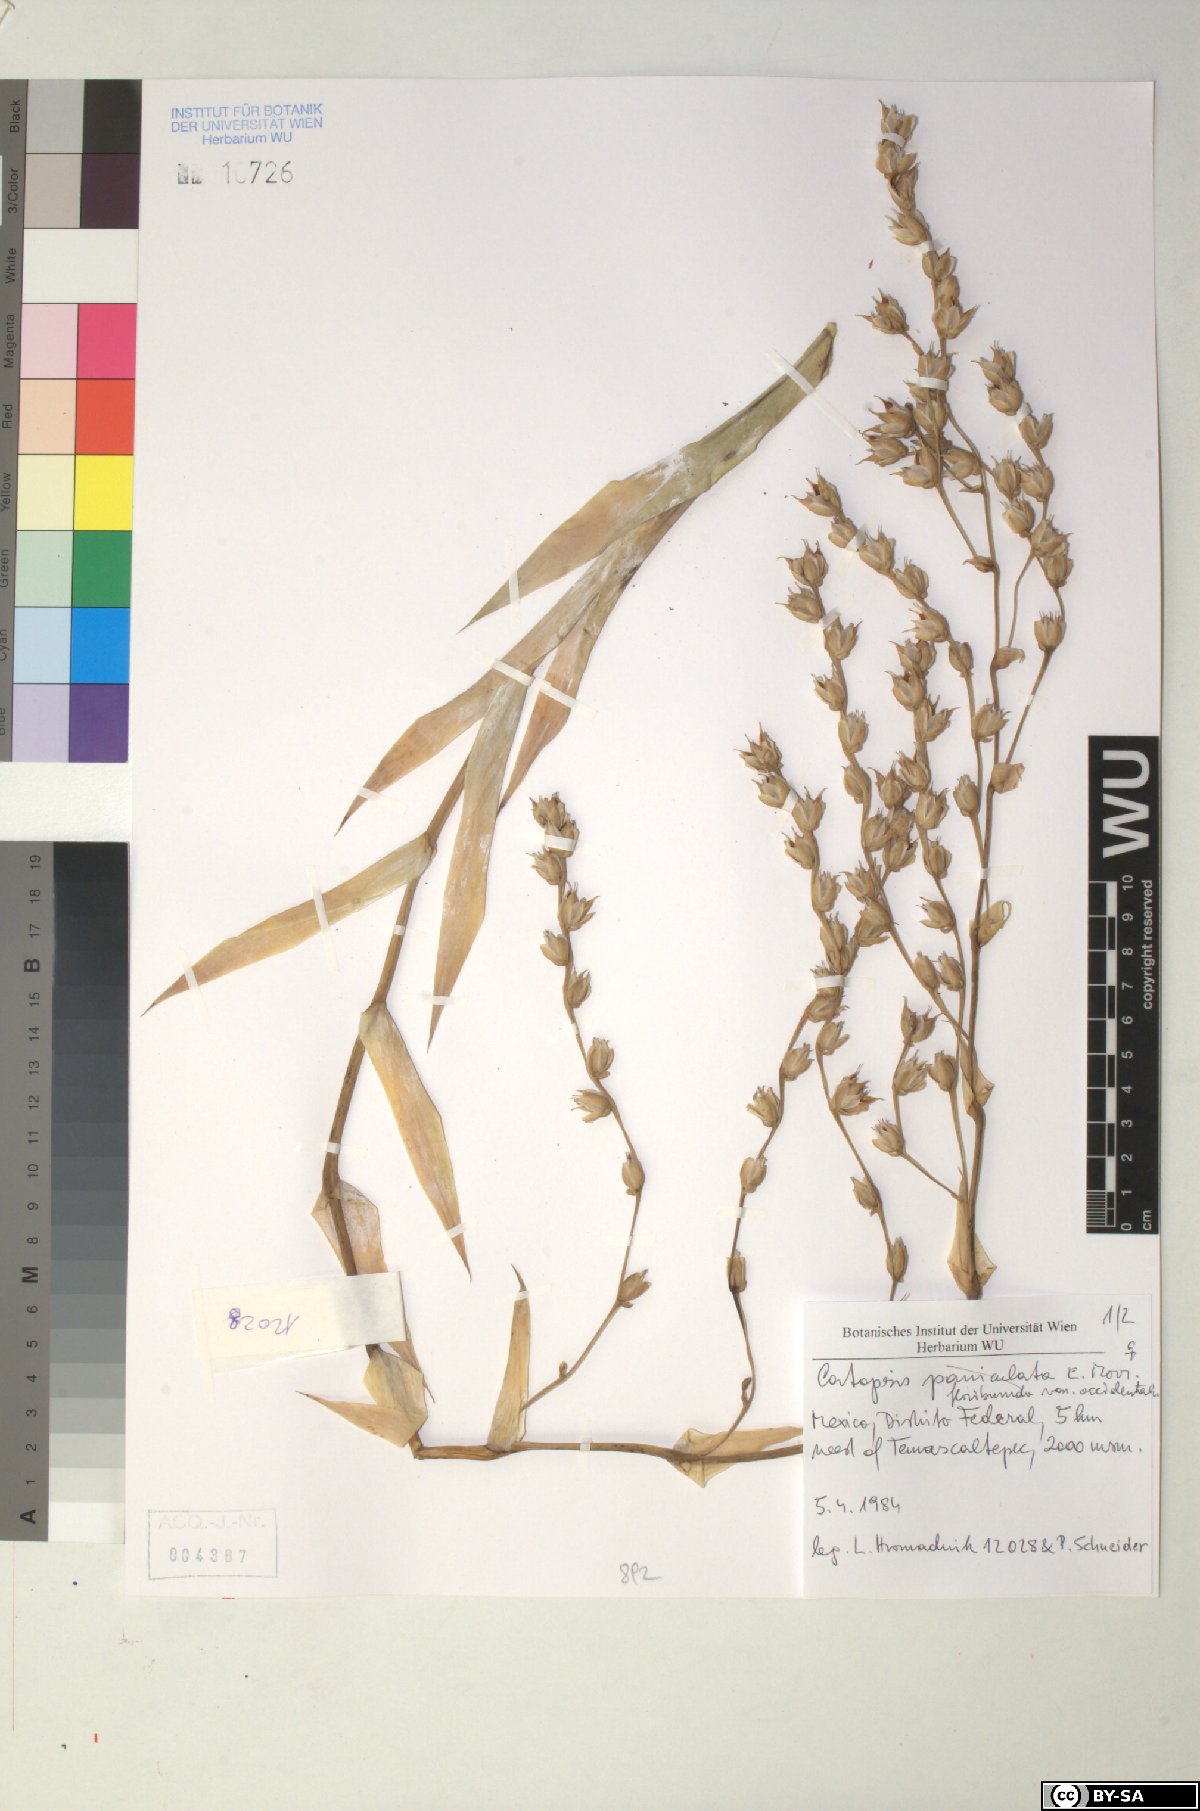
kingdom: Plantae
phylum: Tracheophyta
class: Liliopsida
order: Poales
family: Bromeliaceae
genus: Catopsis
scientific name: Catopsis paniculata
